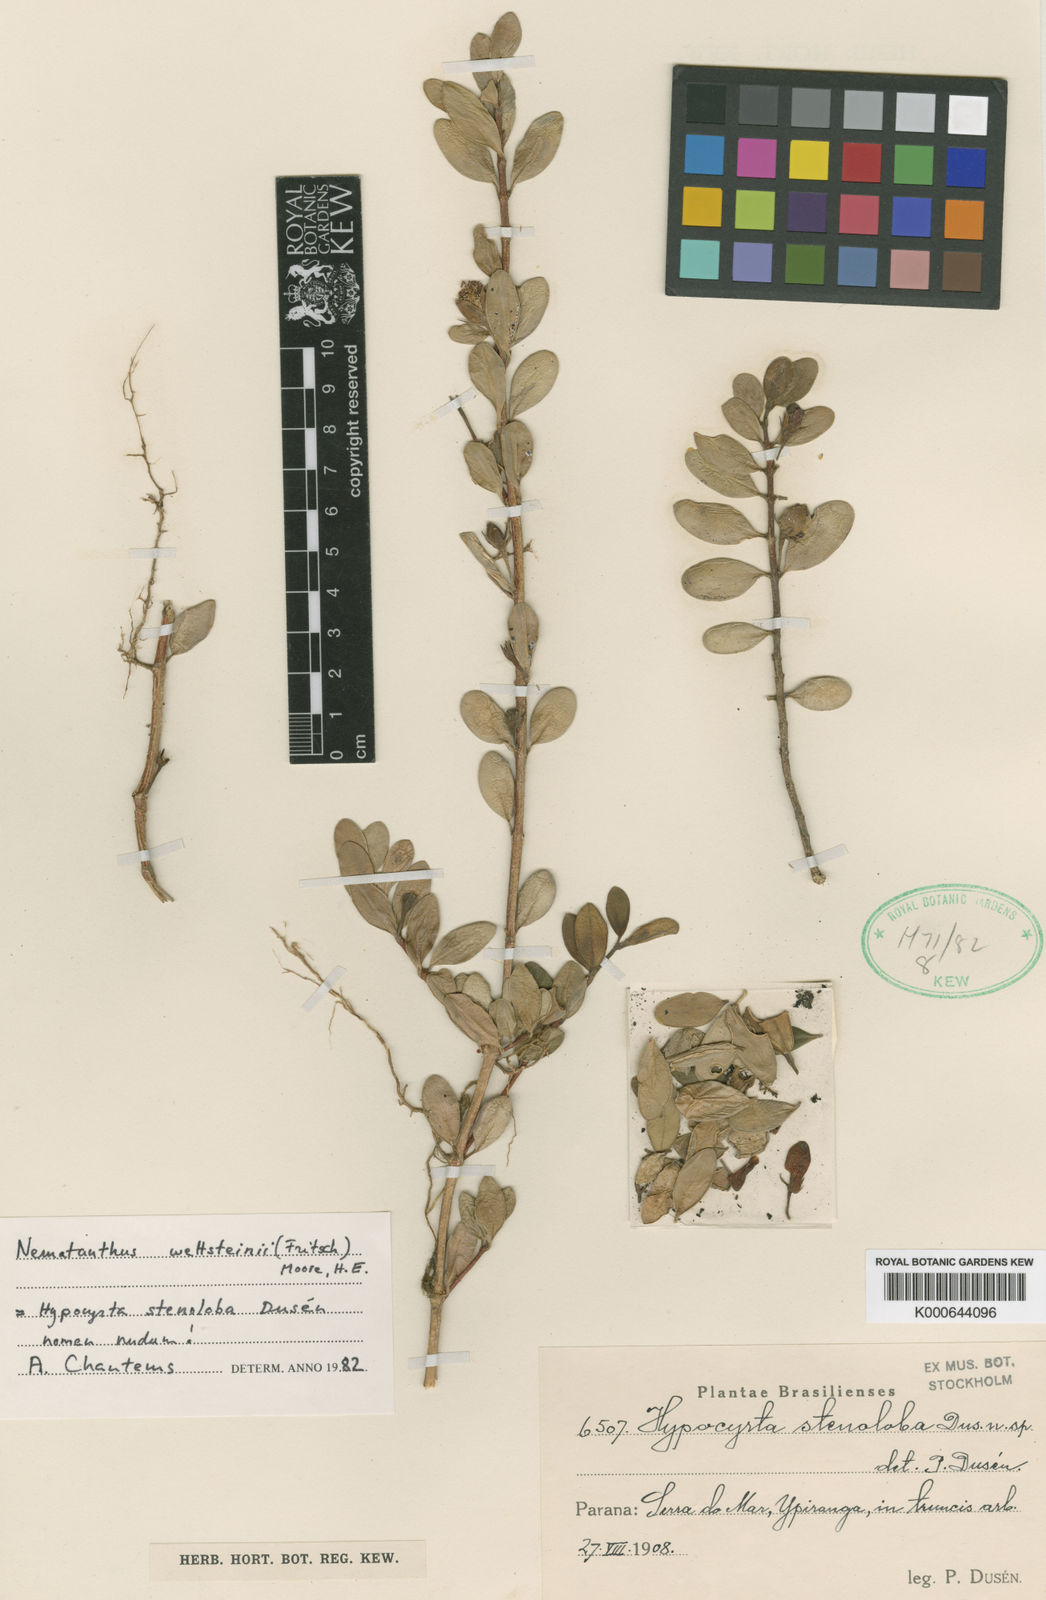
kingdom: Plantae
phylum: Tracheophyta
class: Magnoliopsida
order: Lamiales
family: Gesneriaceae
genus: Nematanthus
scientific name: Nematanthus wettsteinii
